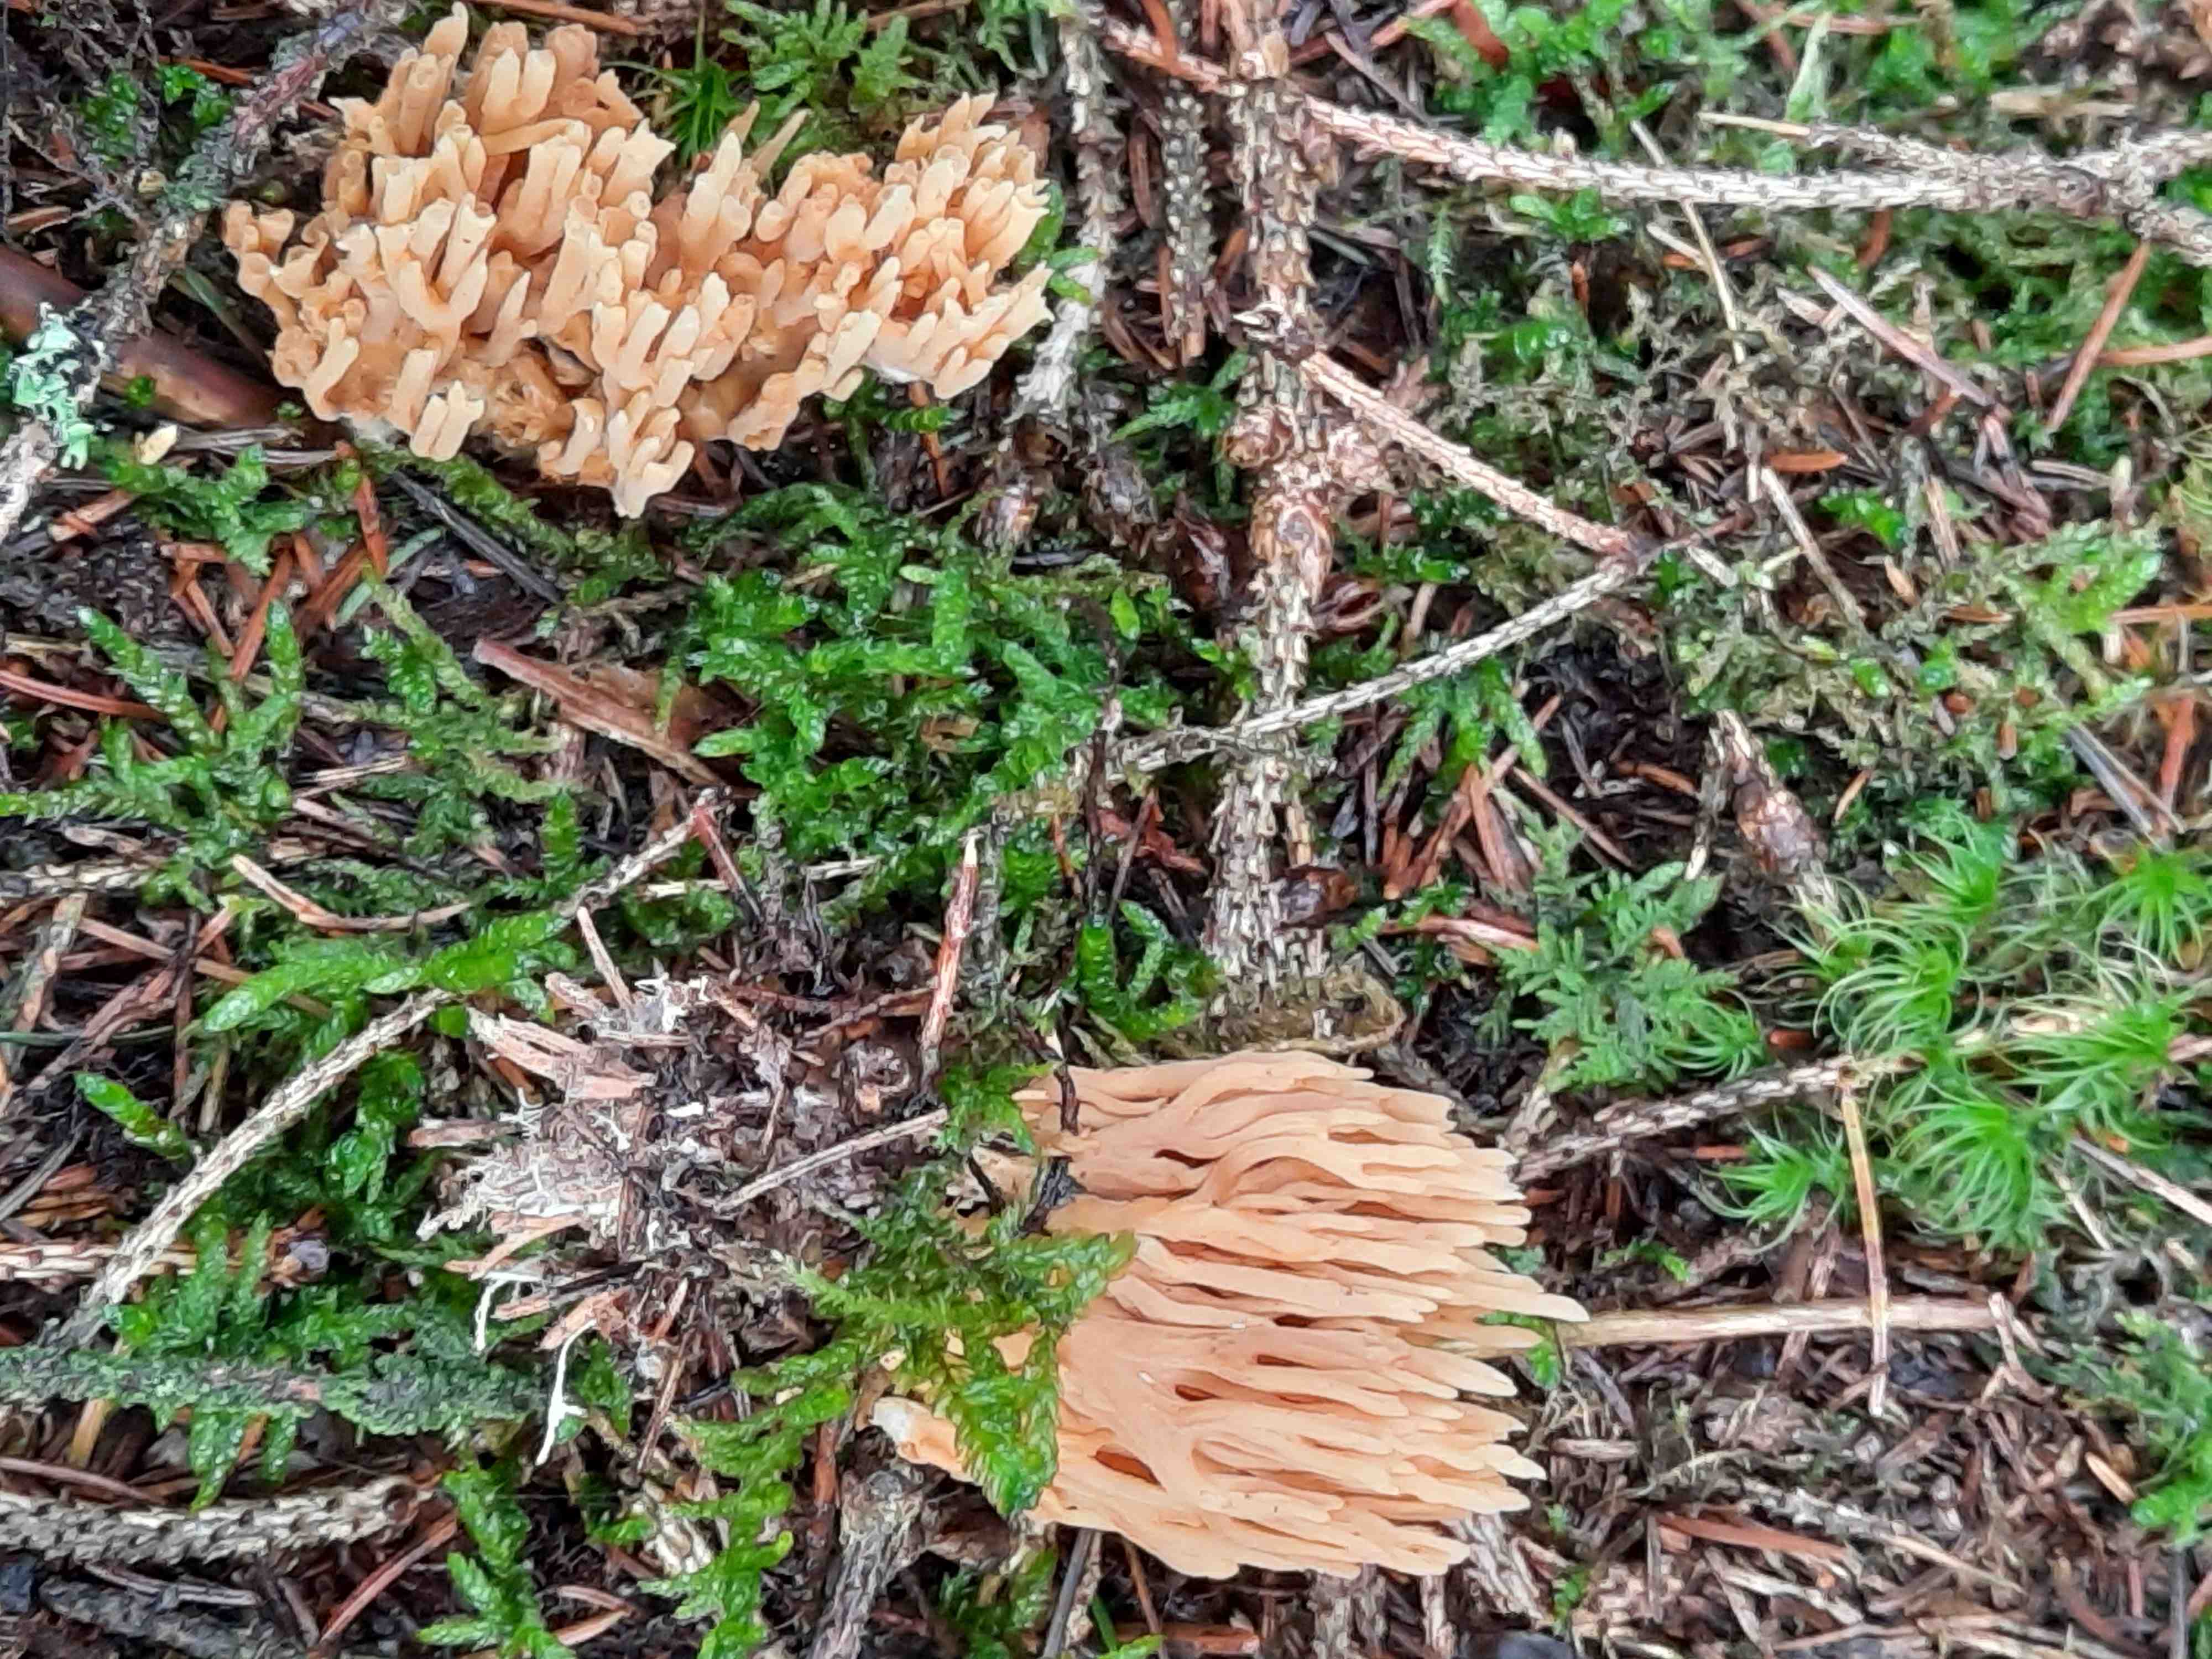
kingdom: Fungi
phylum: Basidiomycota
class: Agaricomycetes
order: Gomphales
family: Gomphaceae
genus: Phaeoclavulina
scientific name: Phaeoclavulina eumorpha
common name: gran-koralsvamp
